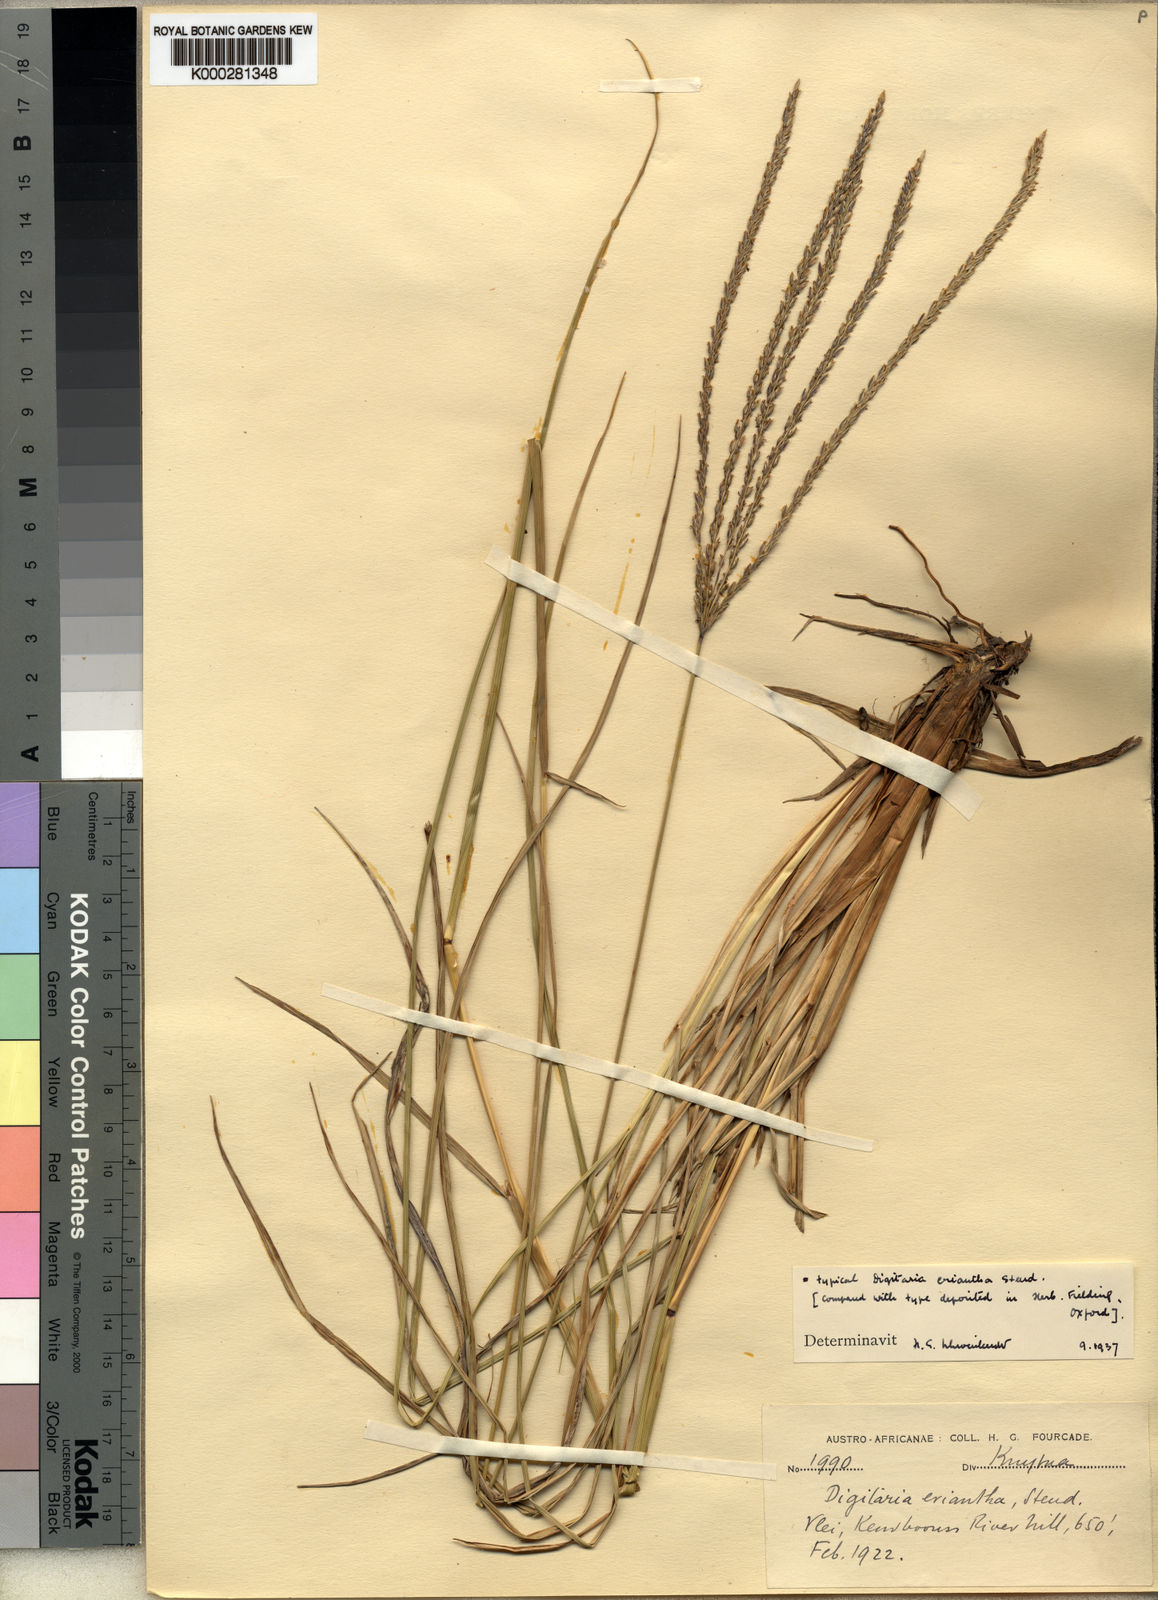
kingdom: Plantae
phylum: Tracheophyta
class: Liliopsida
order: Poales
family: Poaceae
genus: Digitaria
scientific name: Digitaria eriantha
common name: Digitgrass
